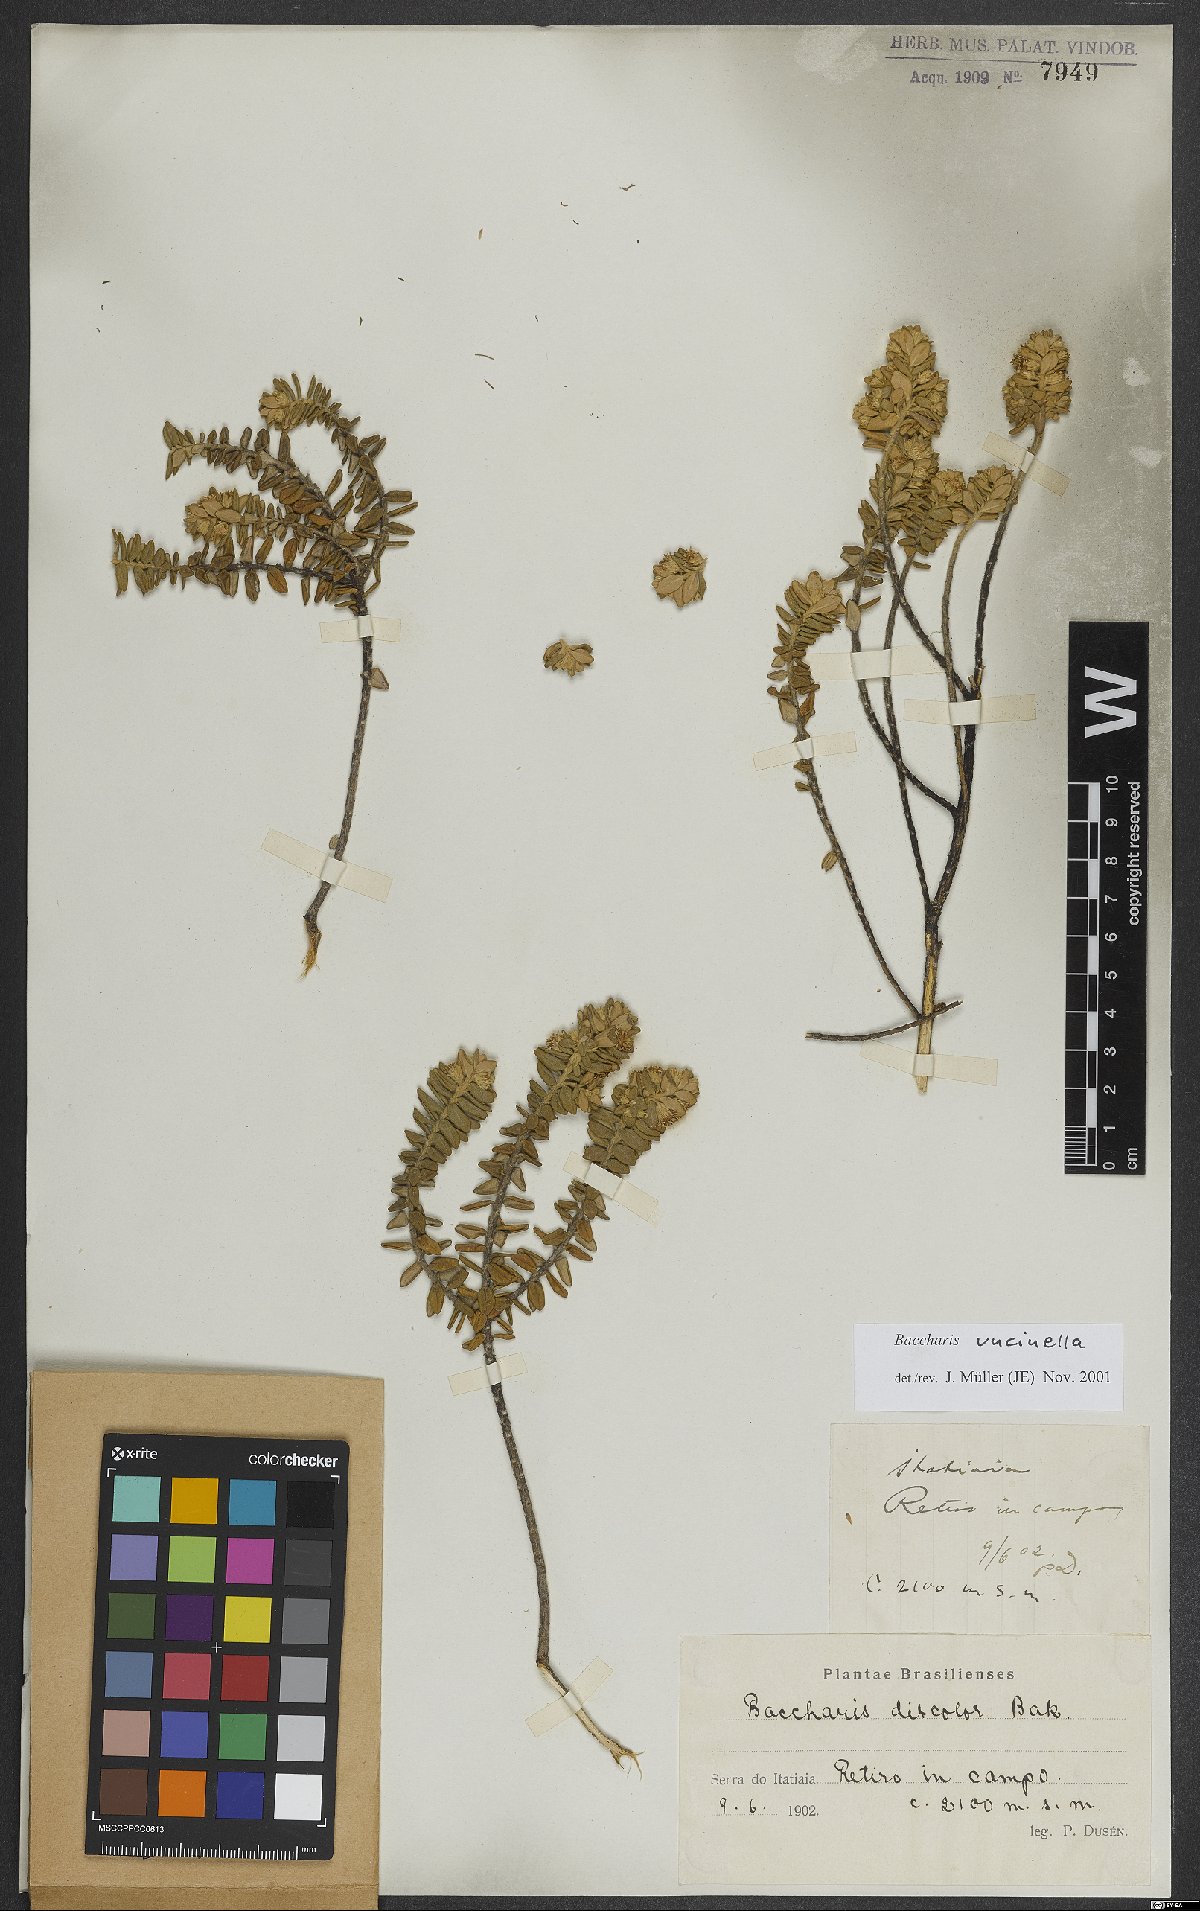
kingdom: Plantae
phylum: Tracheophyta
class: Magnoliopsida
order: Asterales
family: Asteraceae
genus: Baccharis
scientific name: Baccharis uncinella
